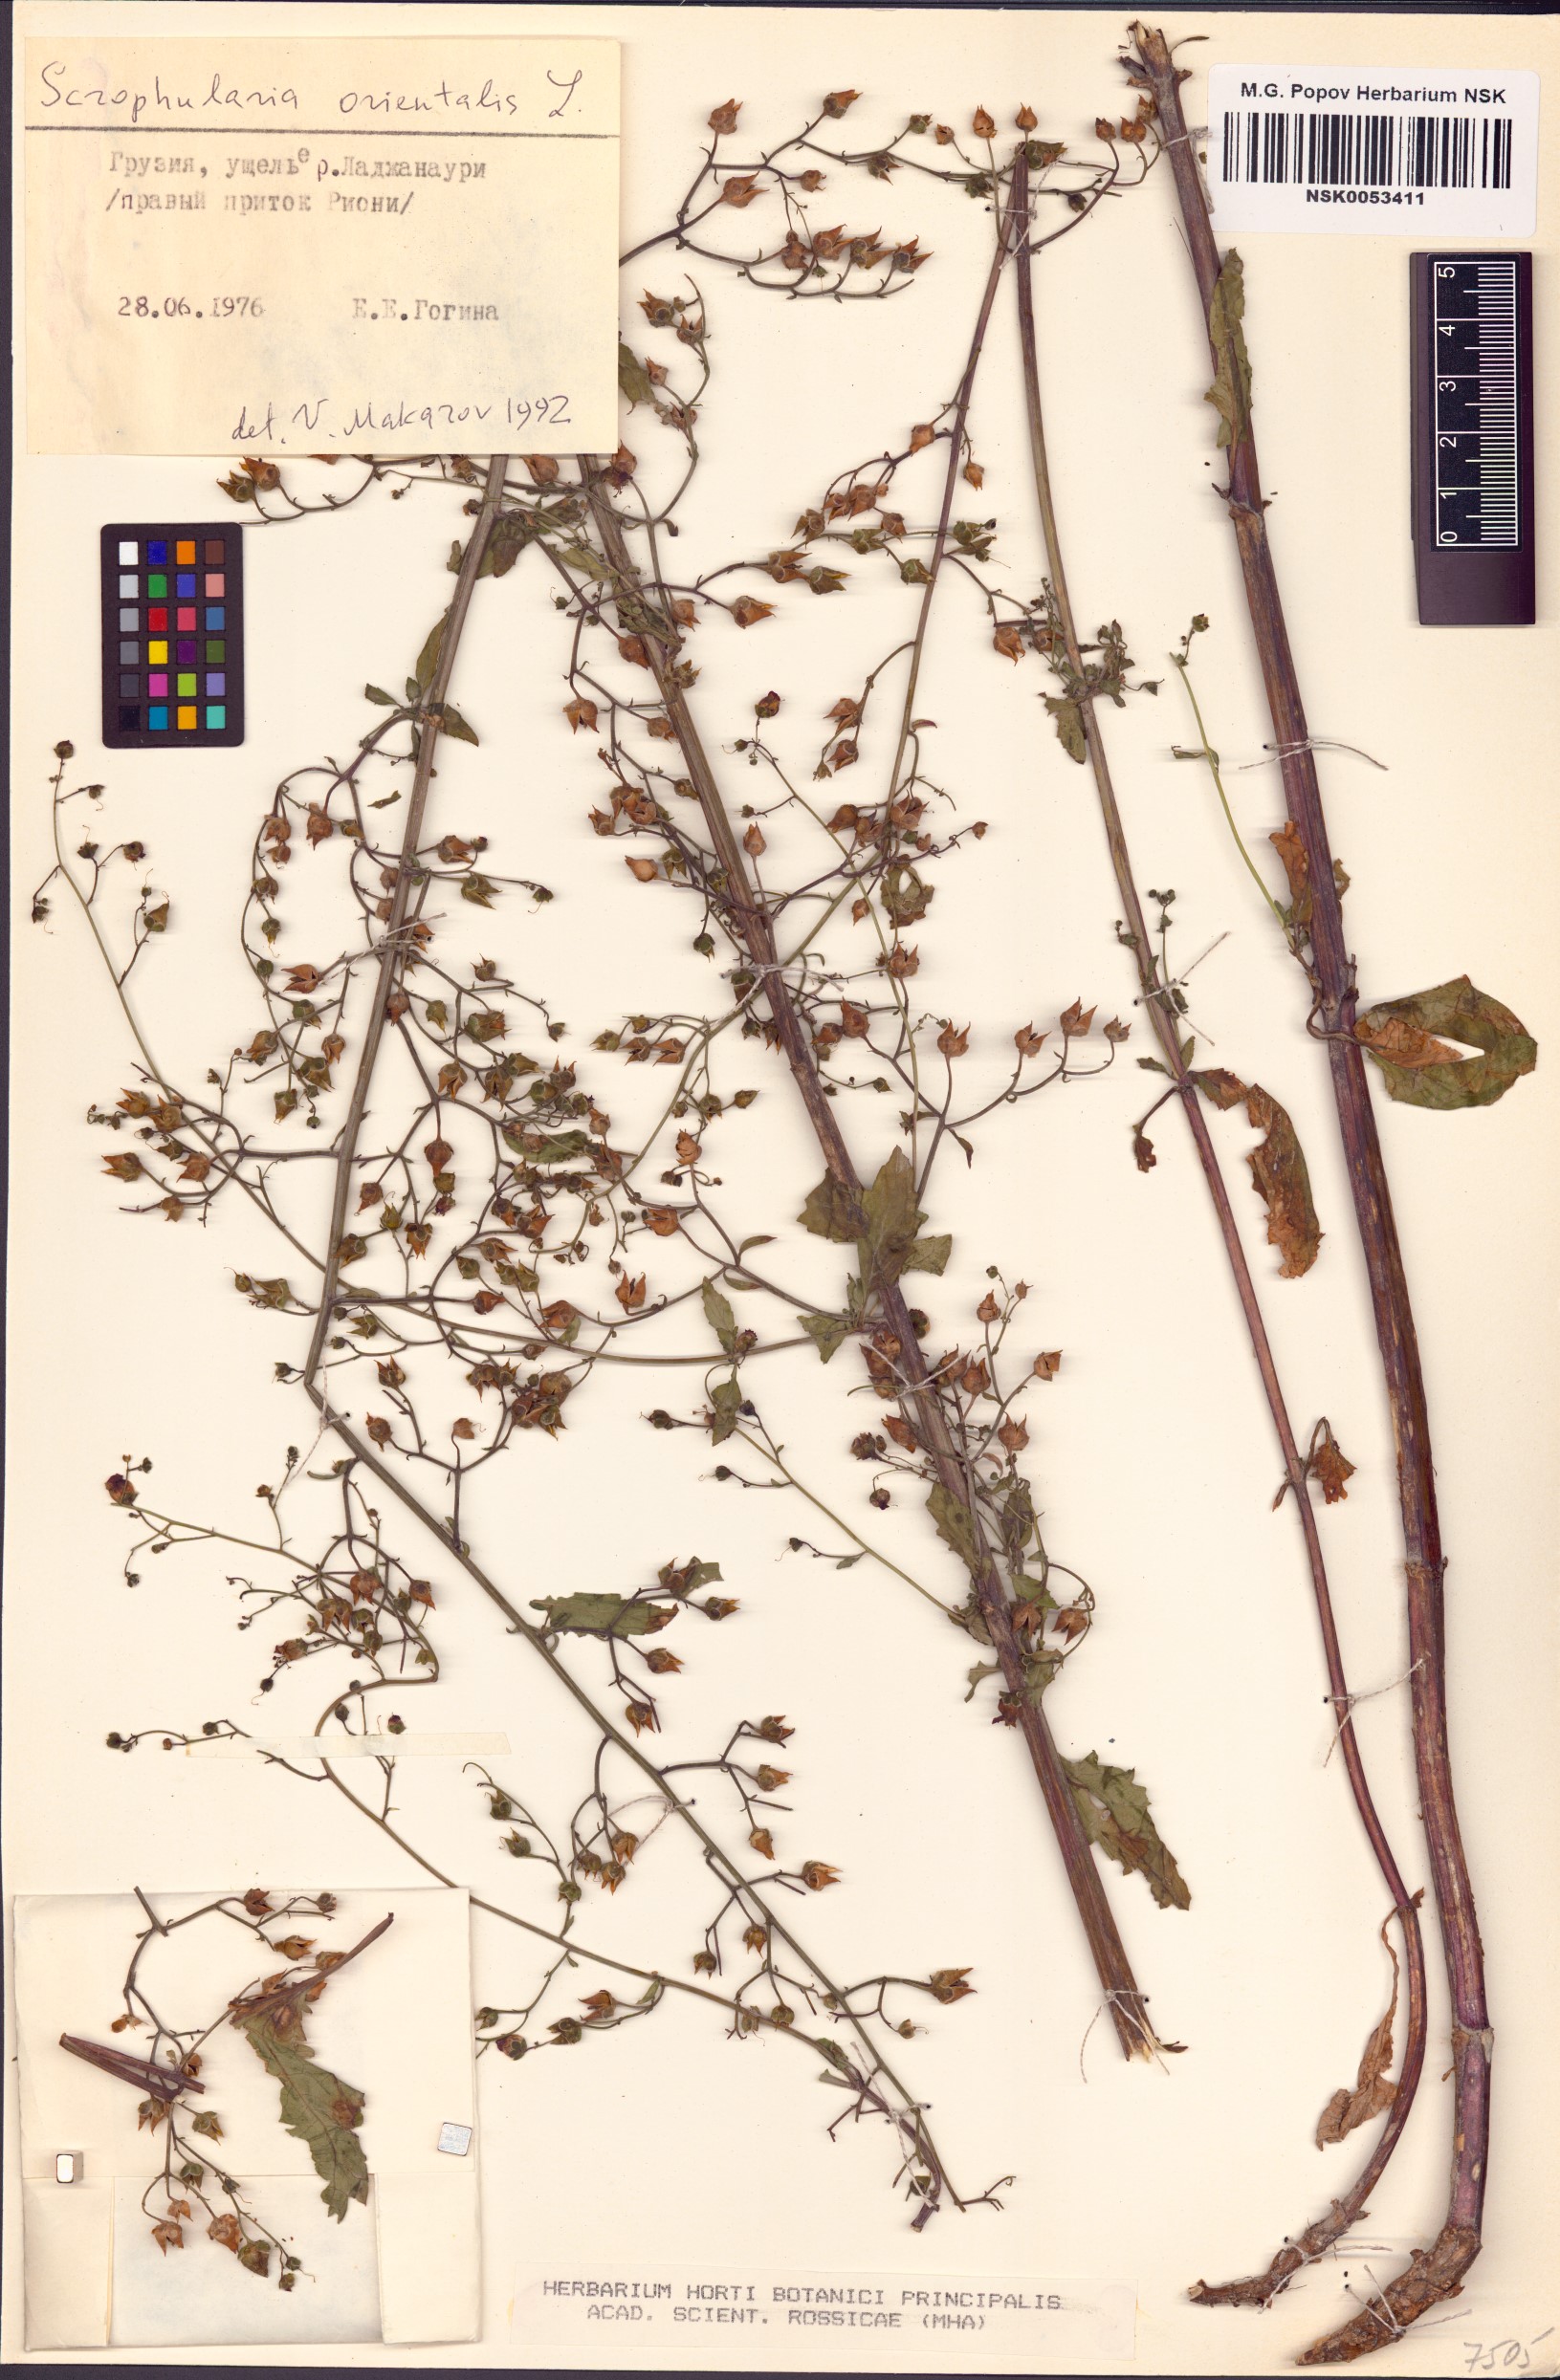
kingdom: Plantae
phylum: Tracheophyta
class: Magnoliopsida
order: Lamiales
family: Scrophulariaceae
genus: Scrophularia
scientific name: Scrophularia orientalis
